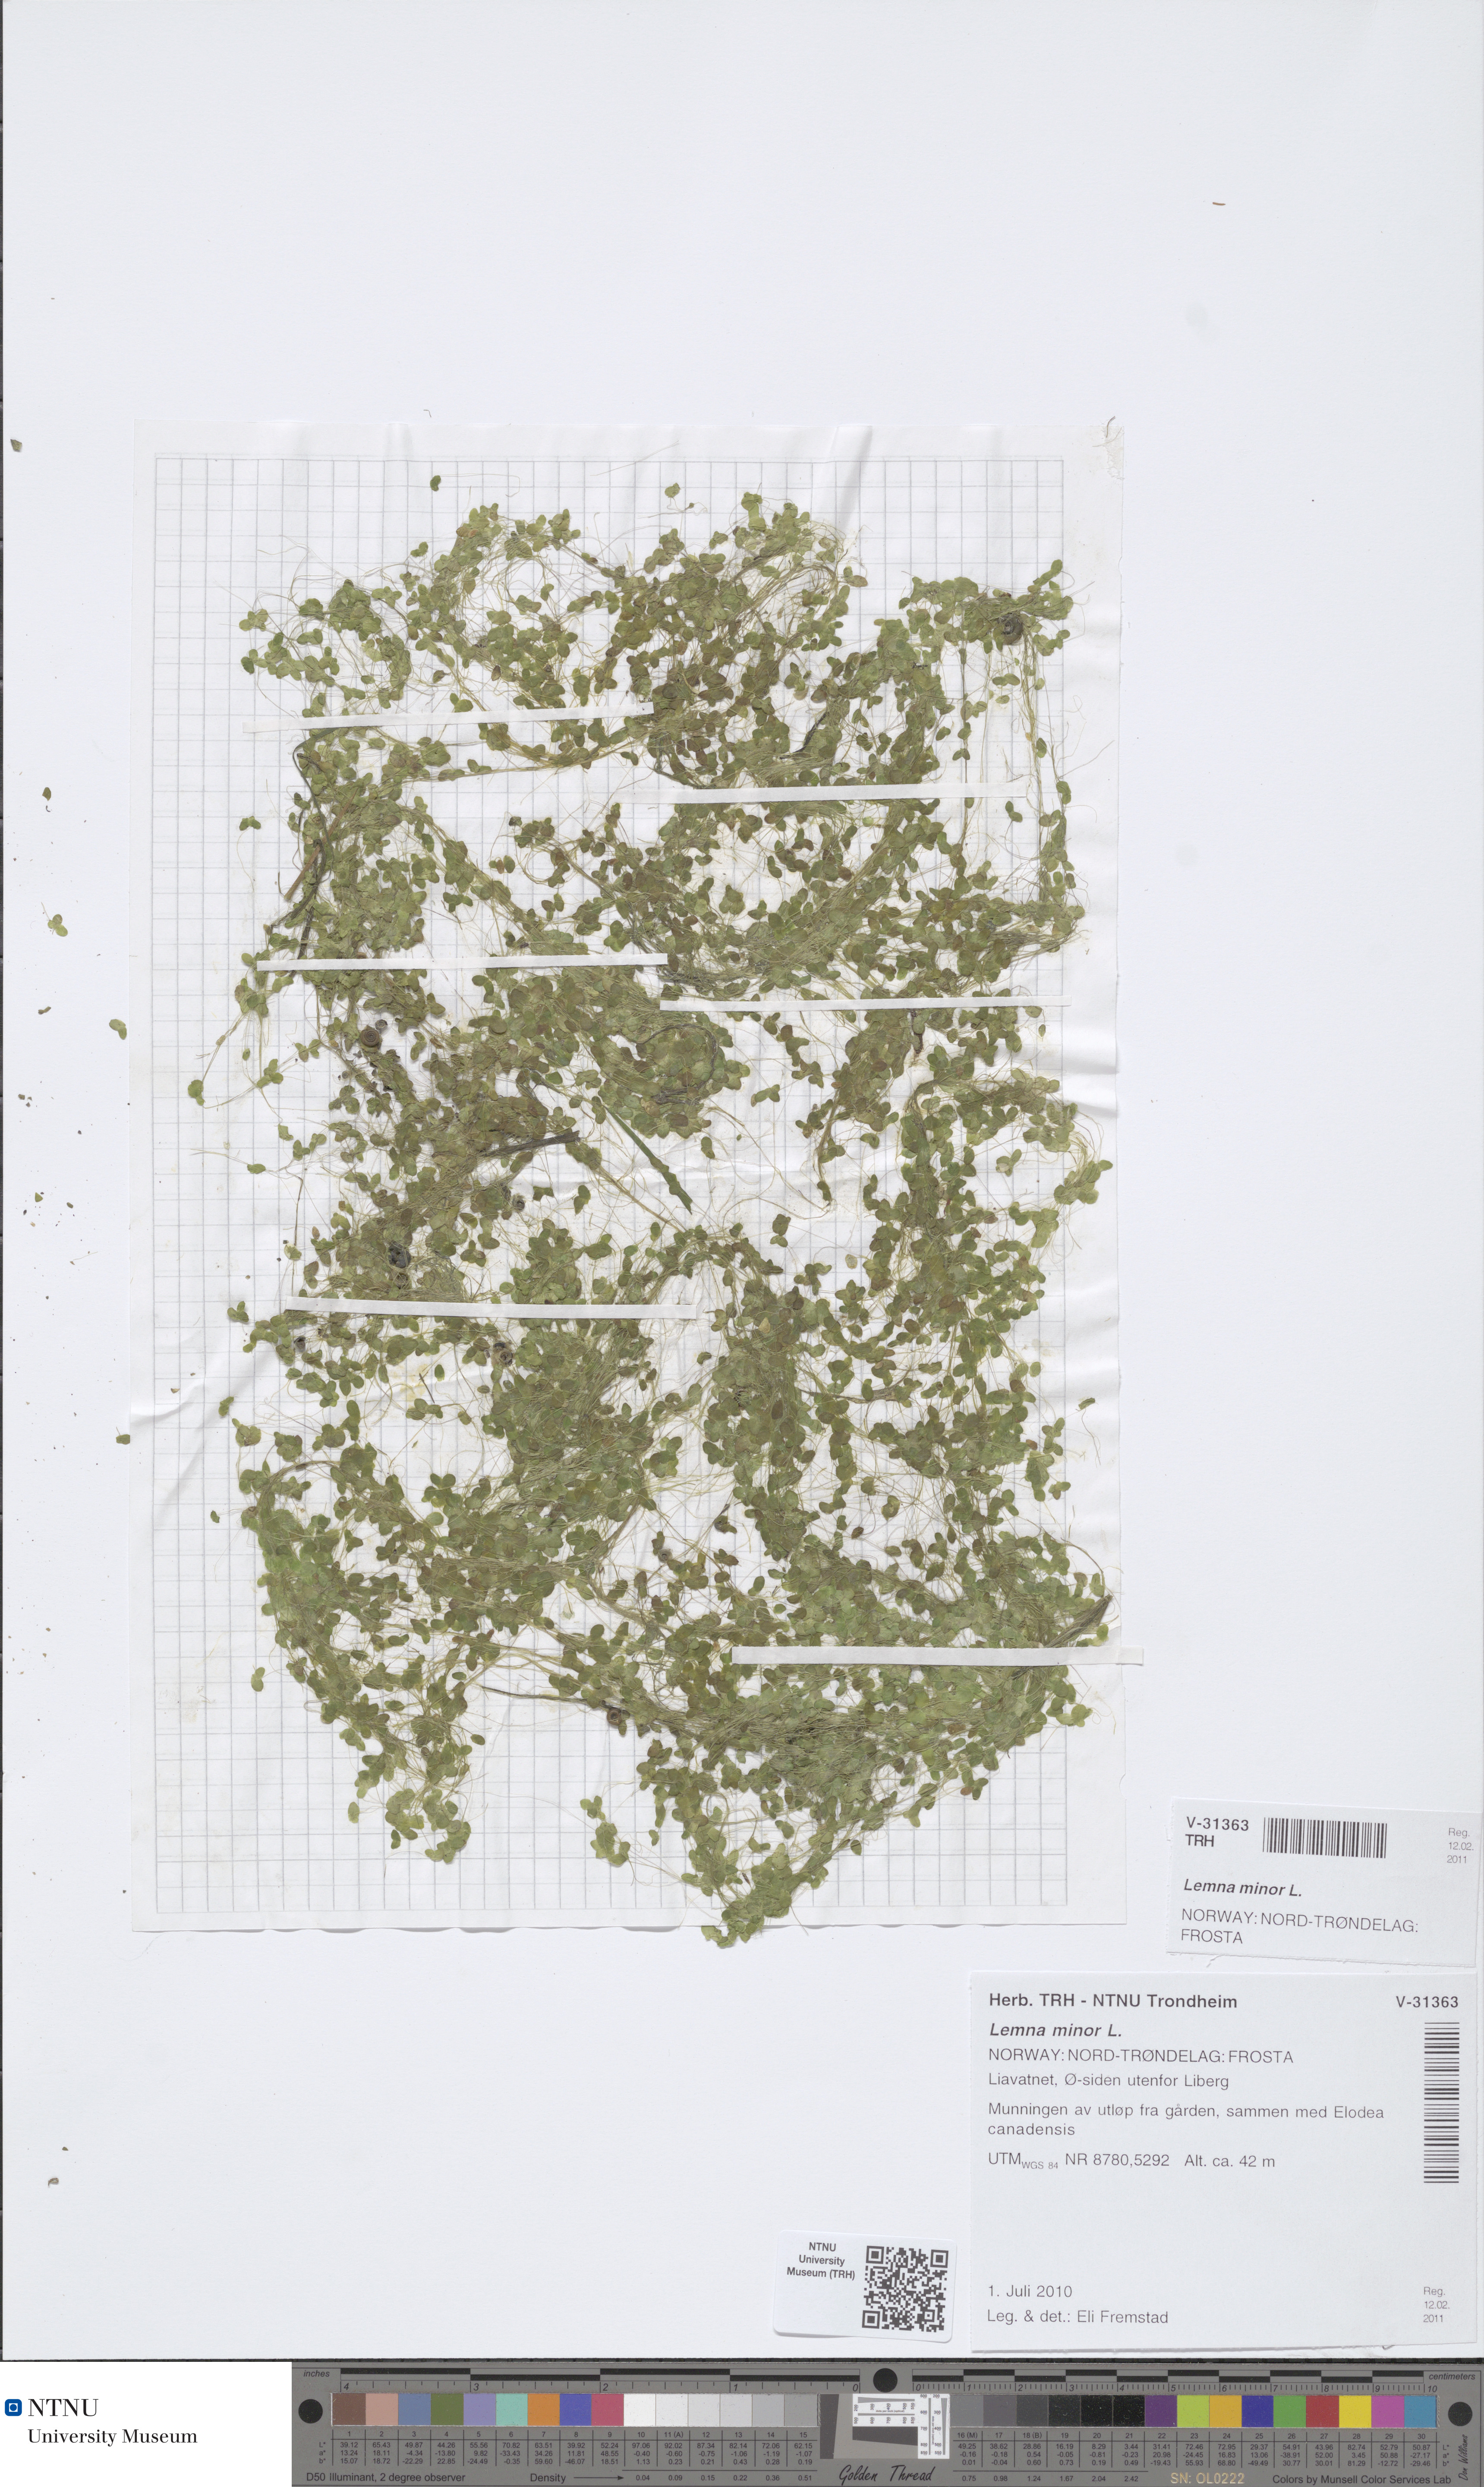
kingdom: Plantae
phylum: Tracheophyta
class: Liliopsida
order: Alismatales
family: Araceae
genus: Lemna
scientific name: Lemna minor
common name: Common duckweed
